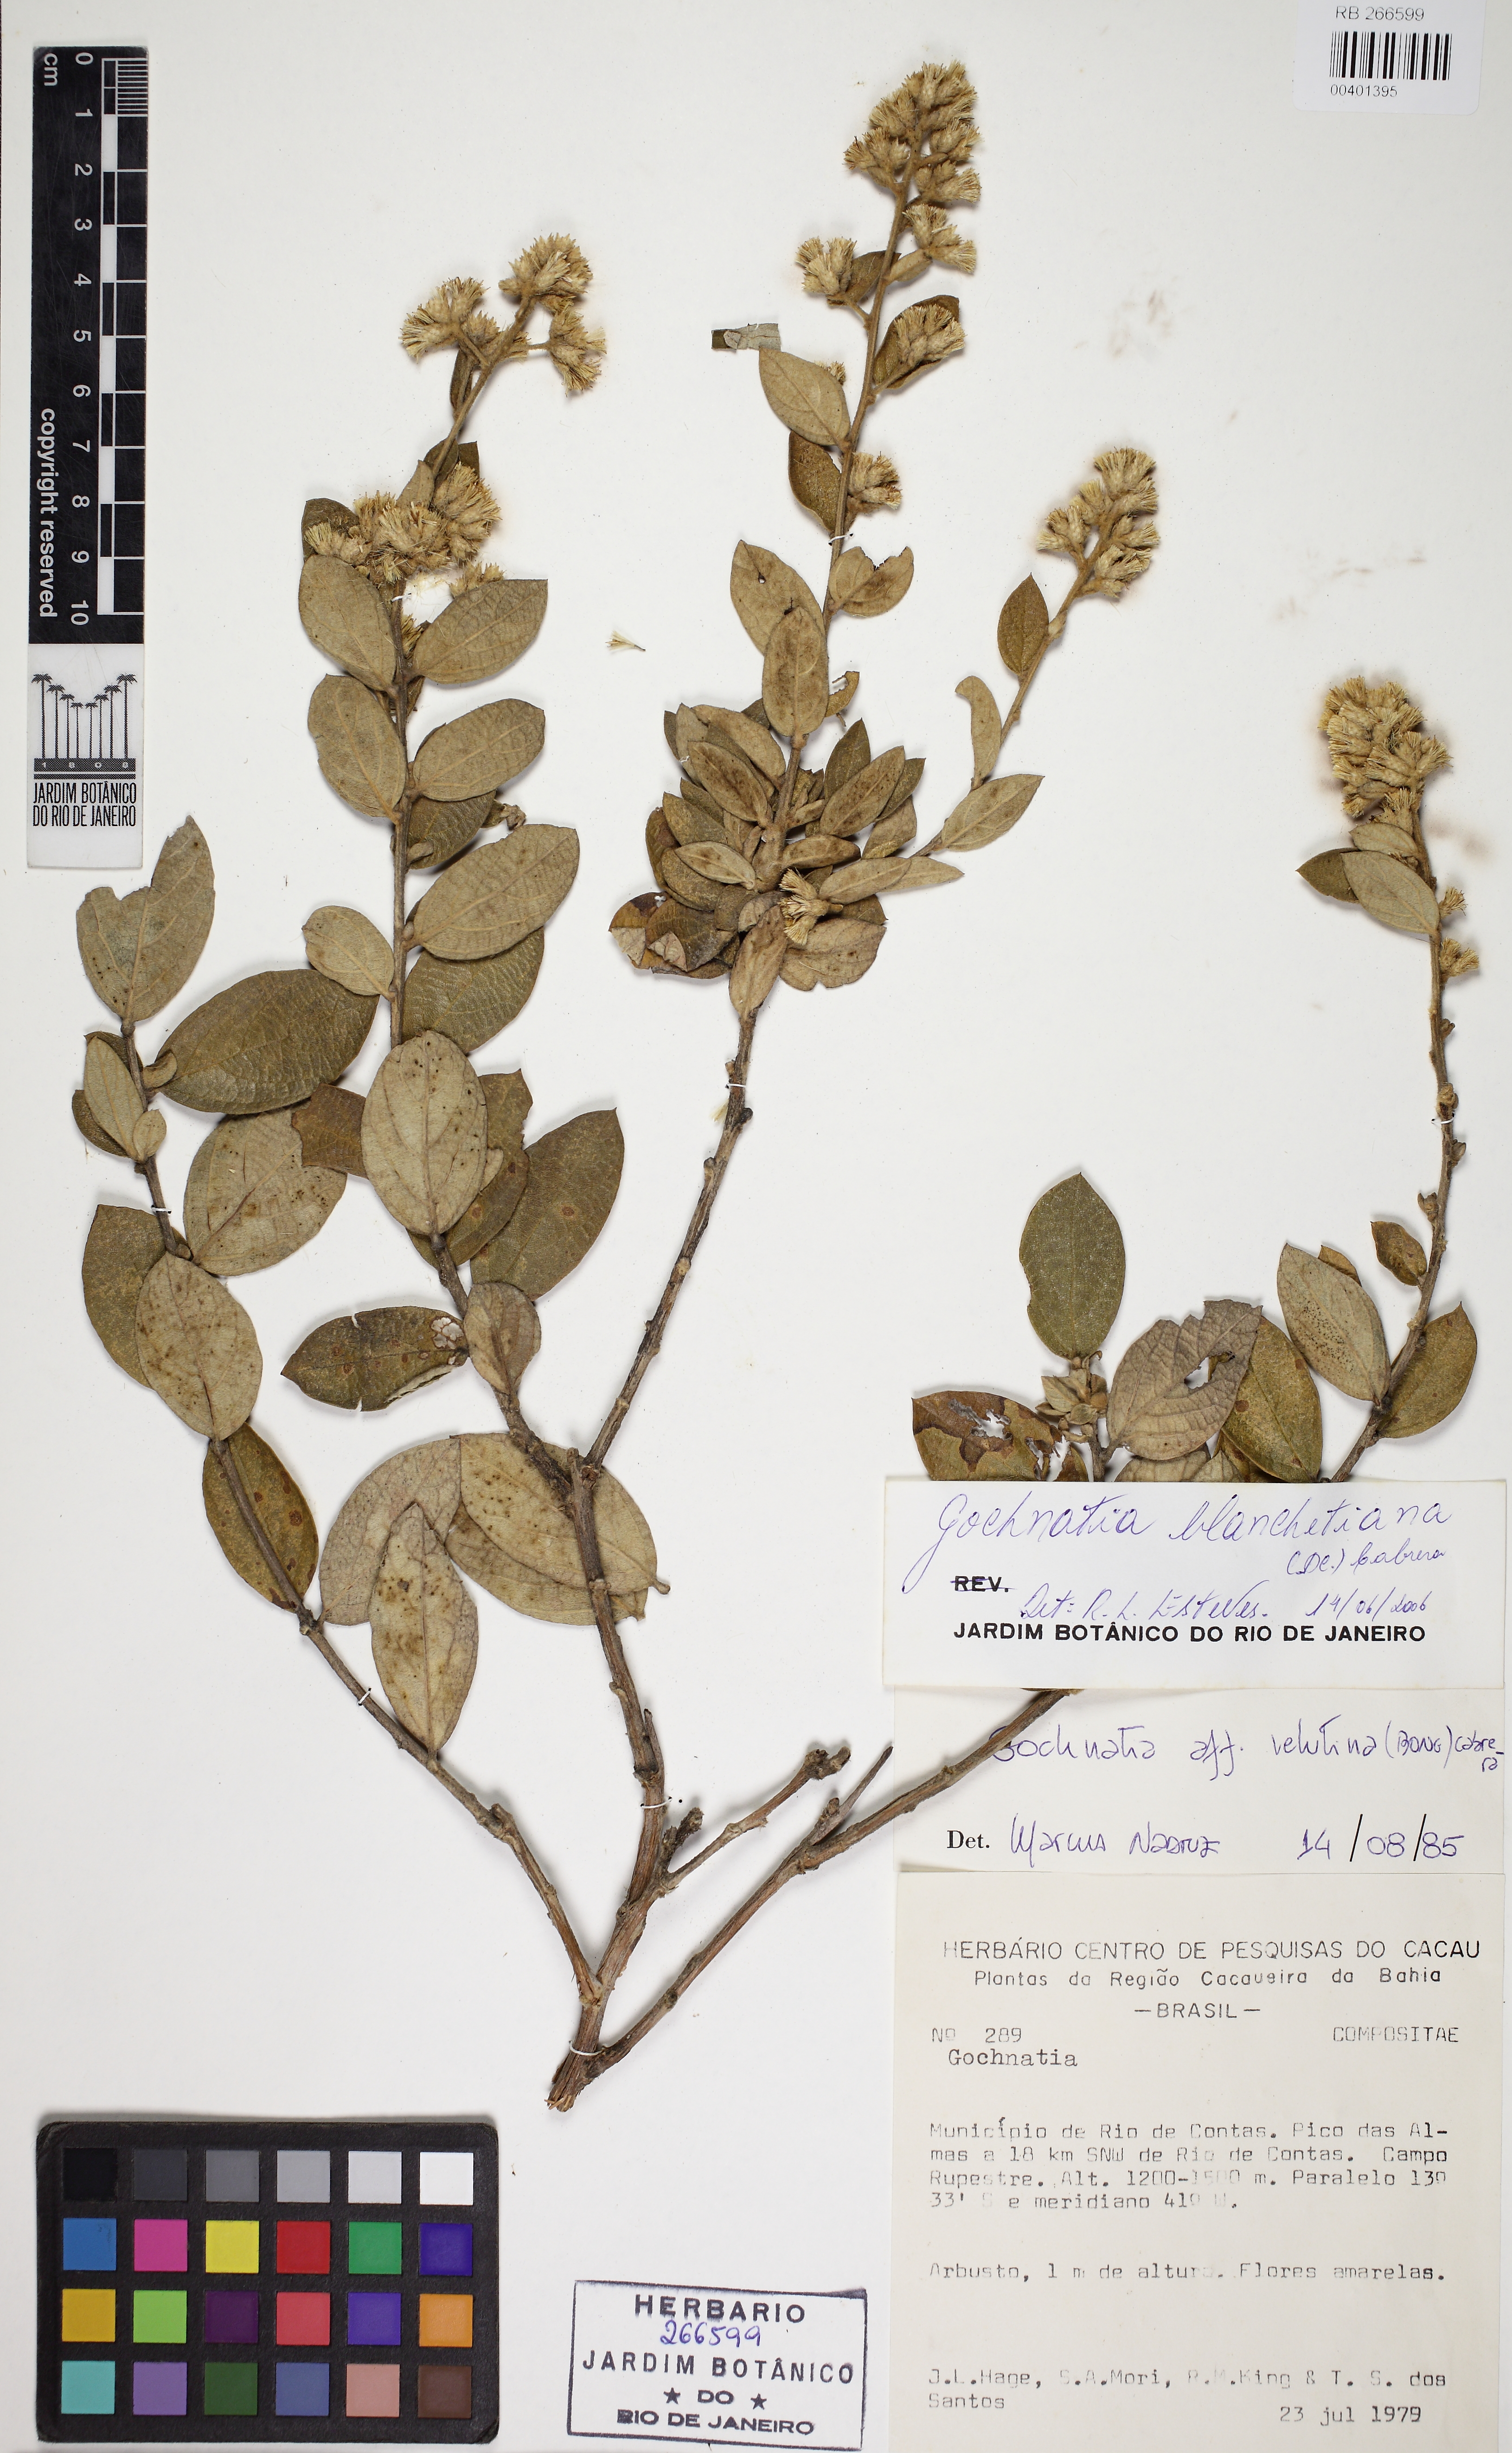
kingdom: Plantae
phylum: Tracheophyta
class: Magnoliopsida
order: Asterales
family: Asteraceae
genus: Moquiniastrum
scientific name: Moquiniastrum blanchetianum
